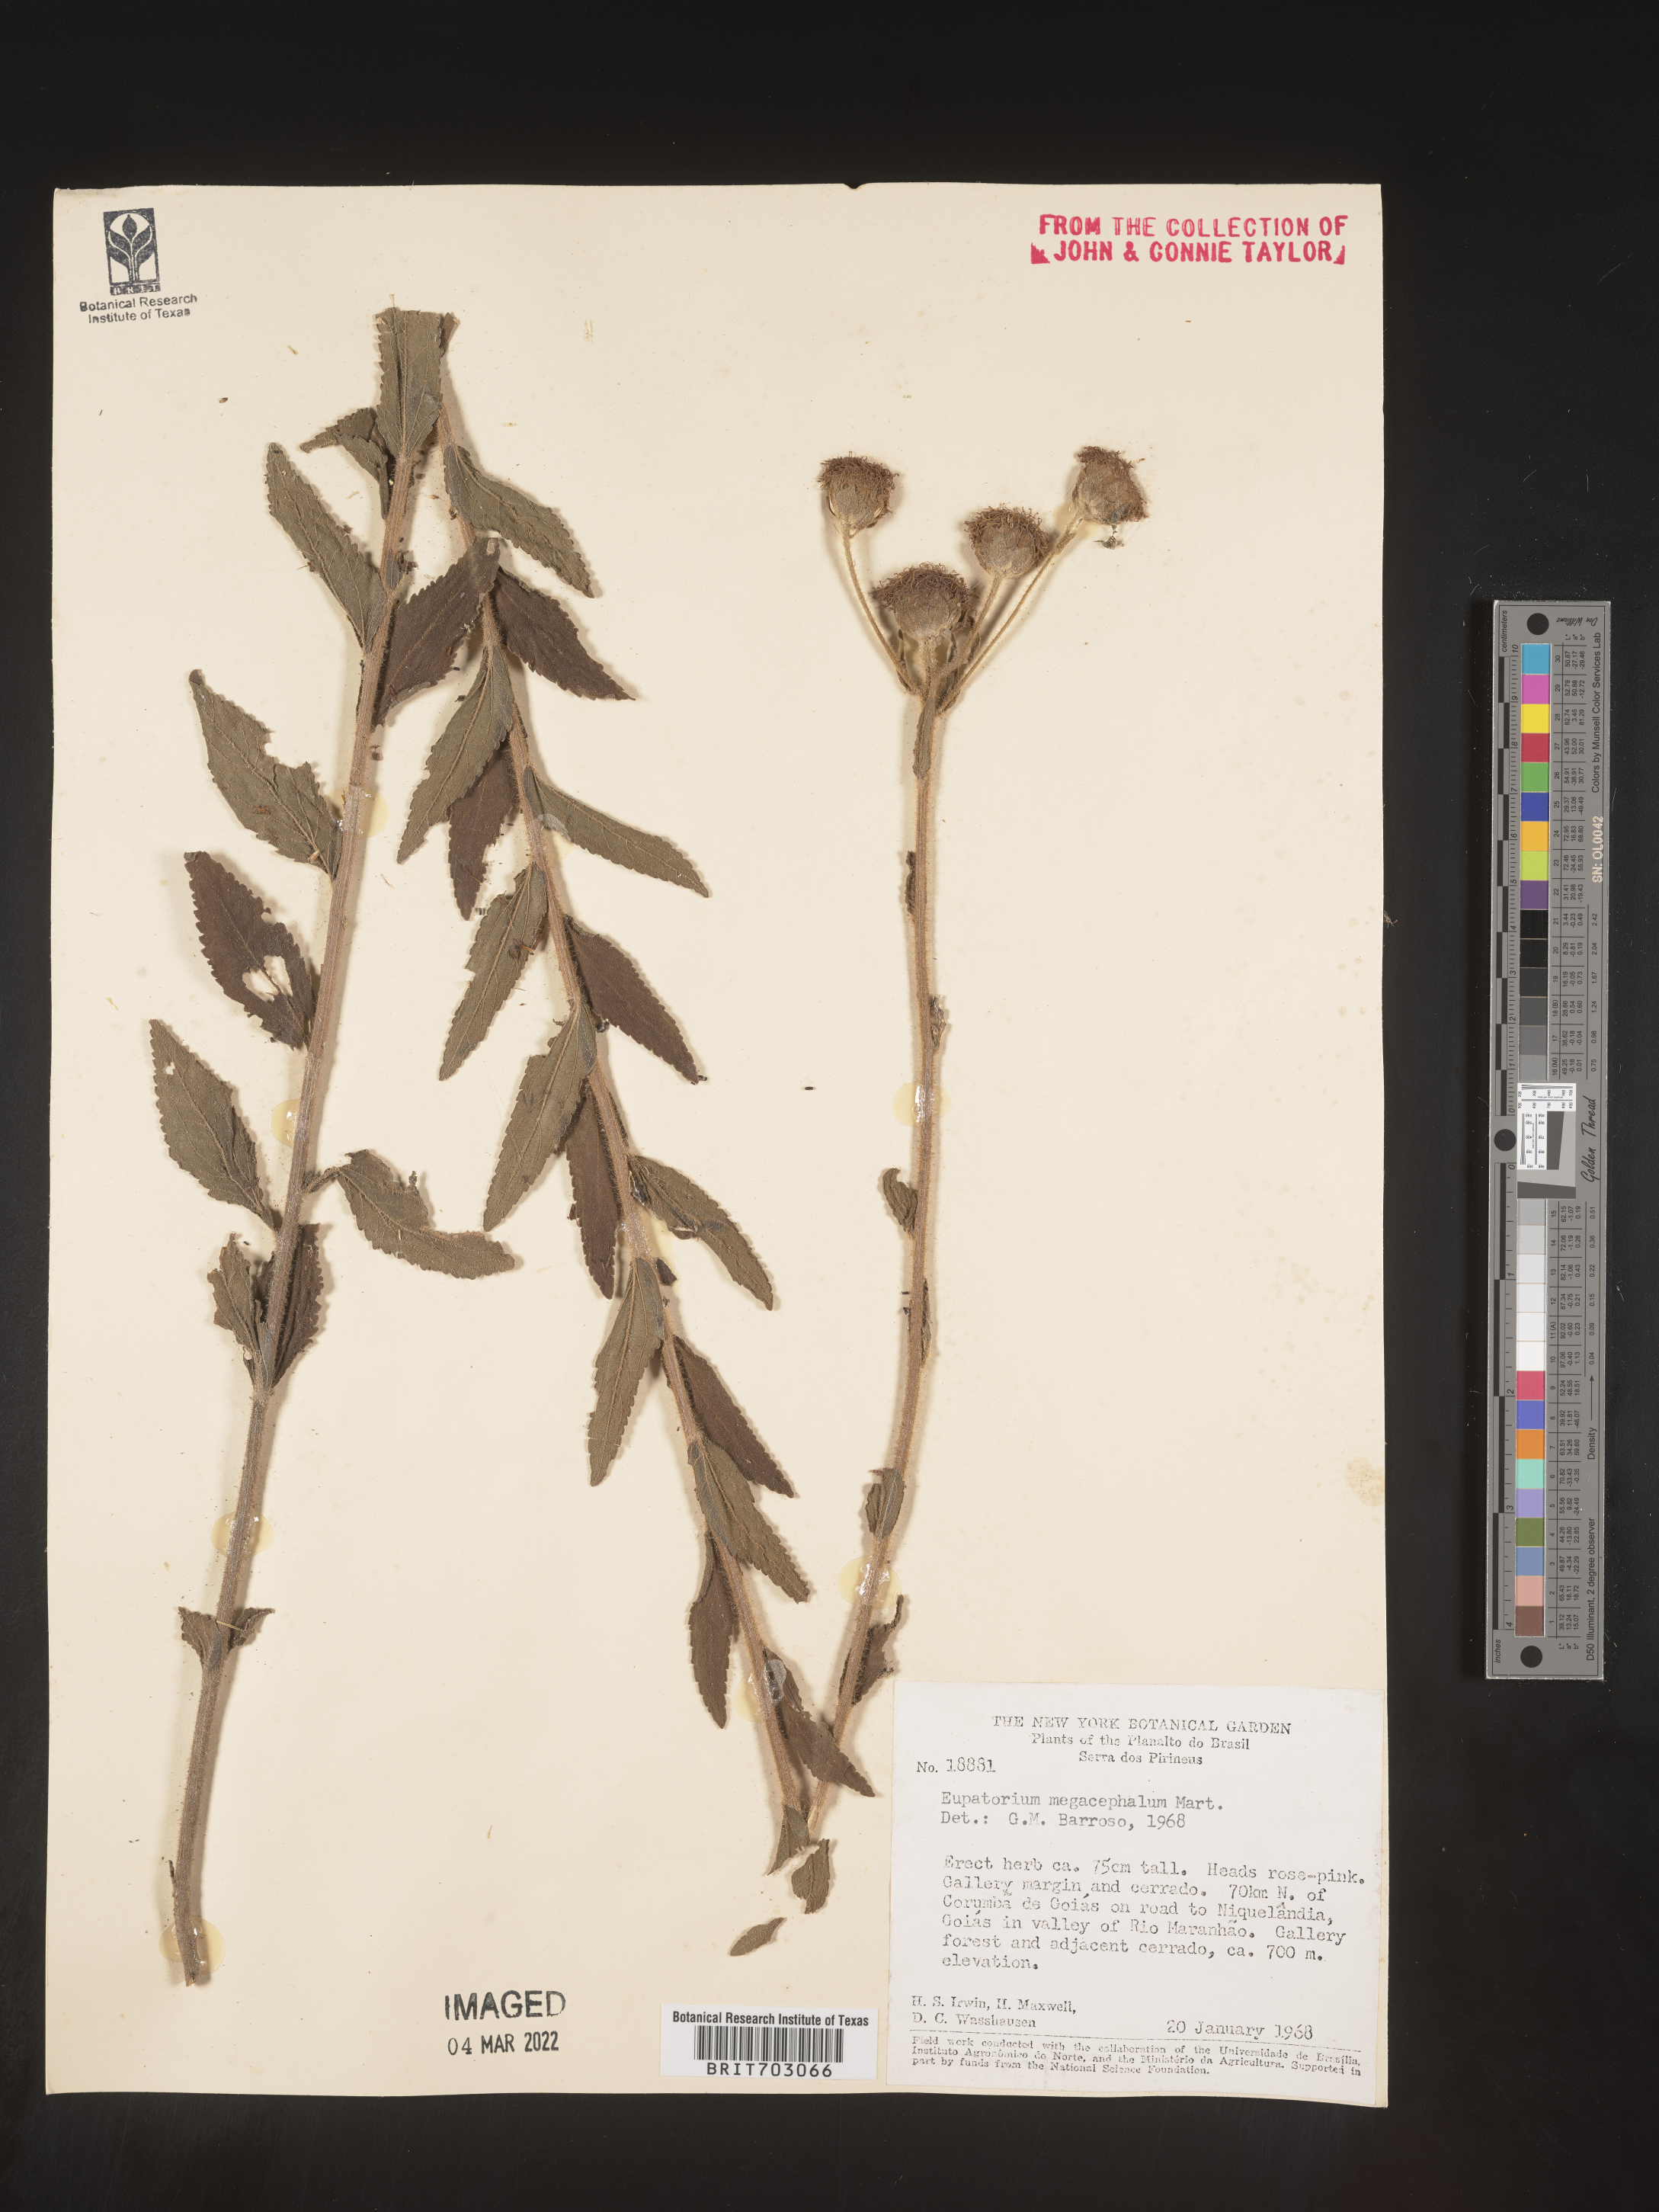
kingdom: Plantae
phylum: Tracheophyta
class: Magnoliopsida
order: Asterales
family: Asteraceae
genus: Eupatorium
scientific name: Eupatorium
